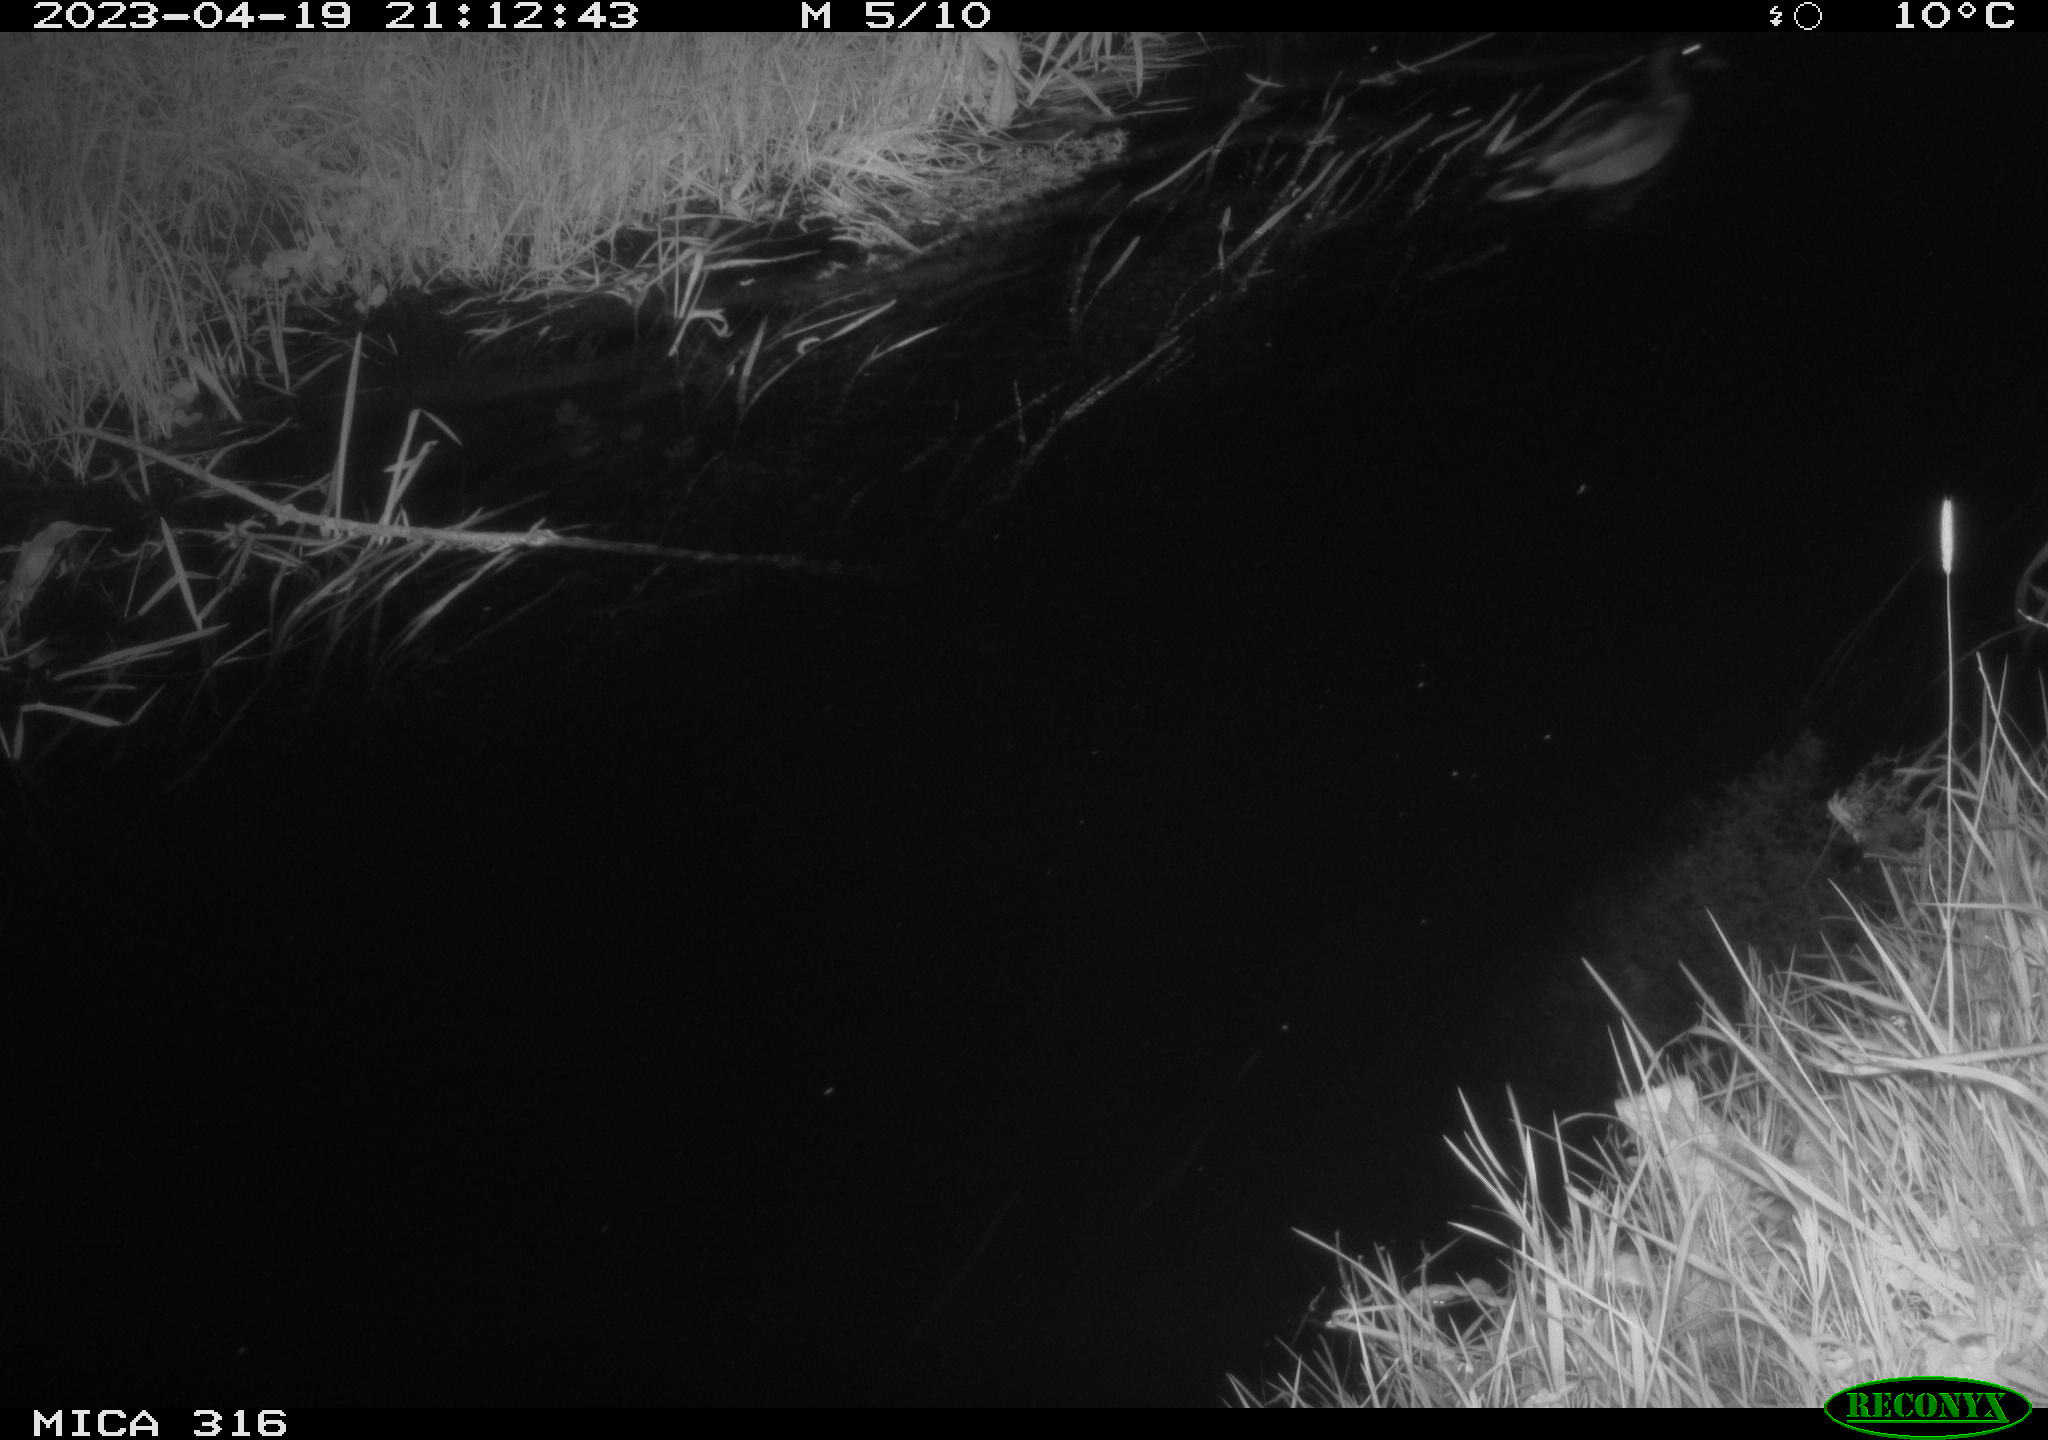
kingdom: Animalia
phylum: Chordata
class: Aves
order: Anseriformes
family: Anatidae
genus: Anas
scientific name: Anas
